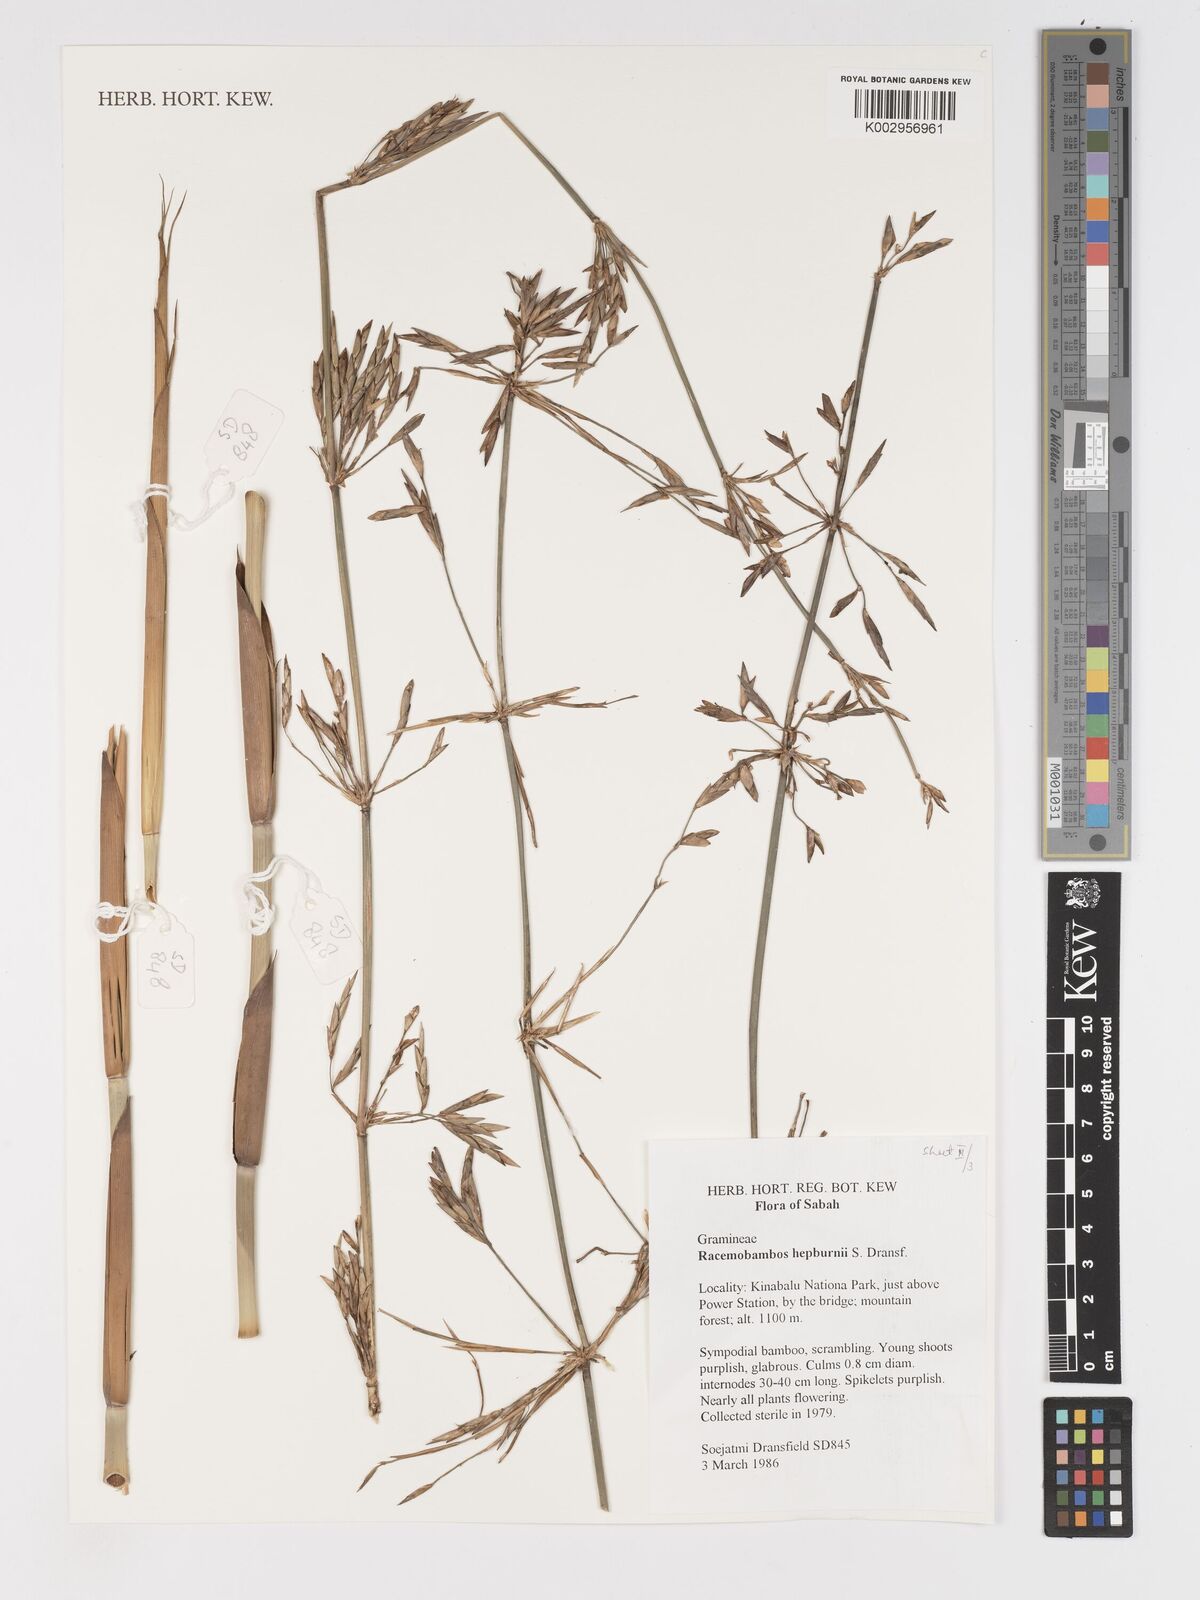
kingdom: Plantae
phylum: Tracheophyta
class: Liliopsida
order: Poales
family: Poaceae
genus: Racemobambos
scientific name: Racemobambos hepburnii
